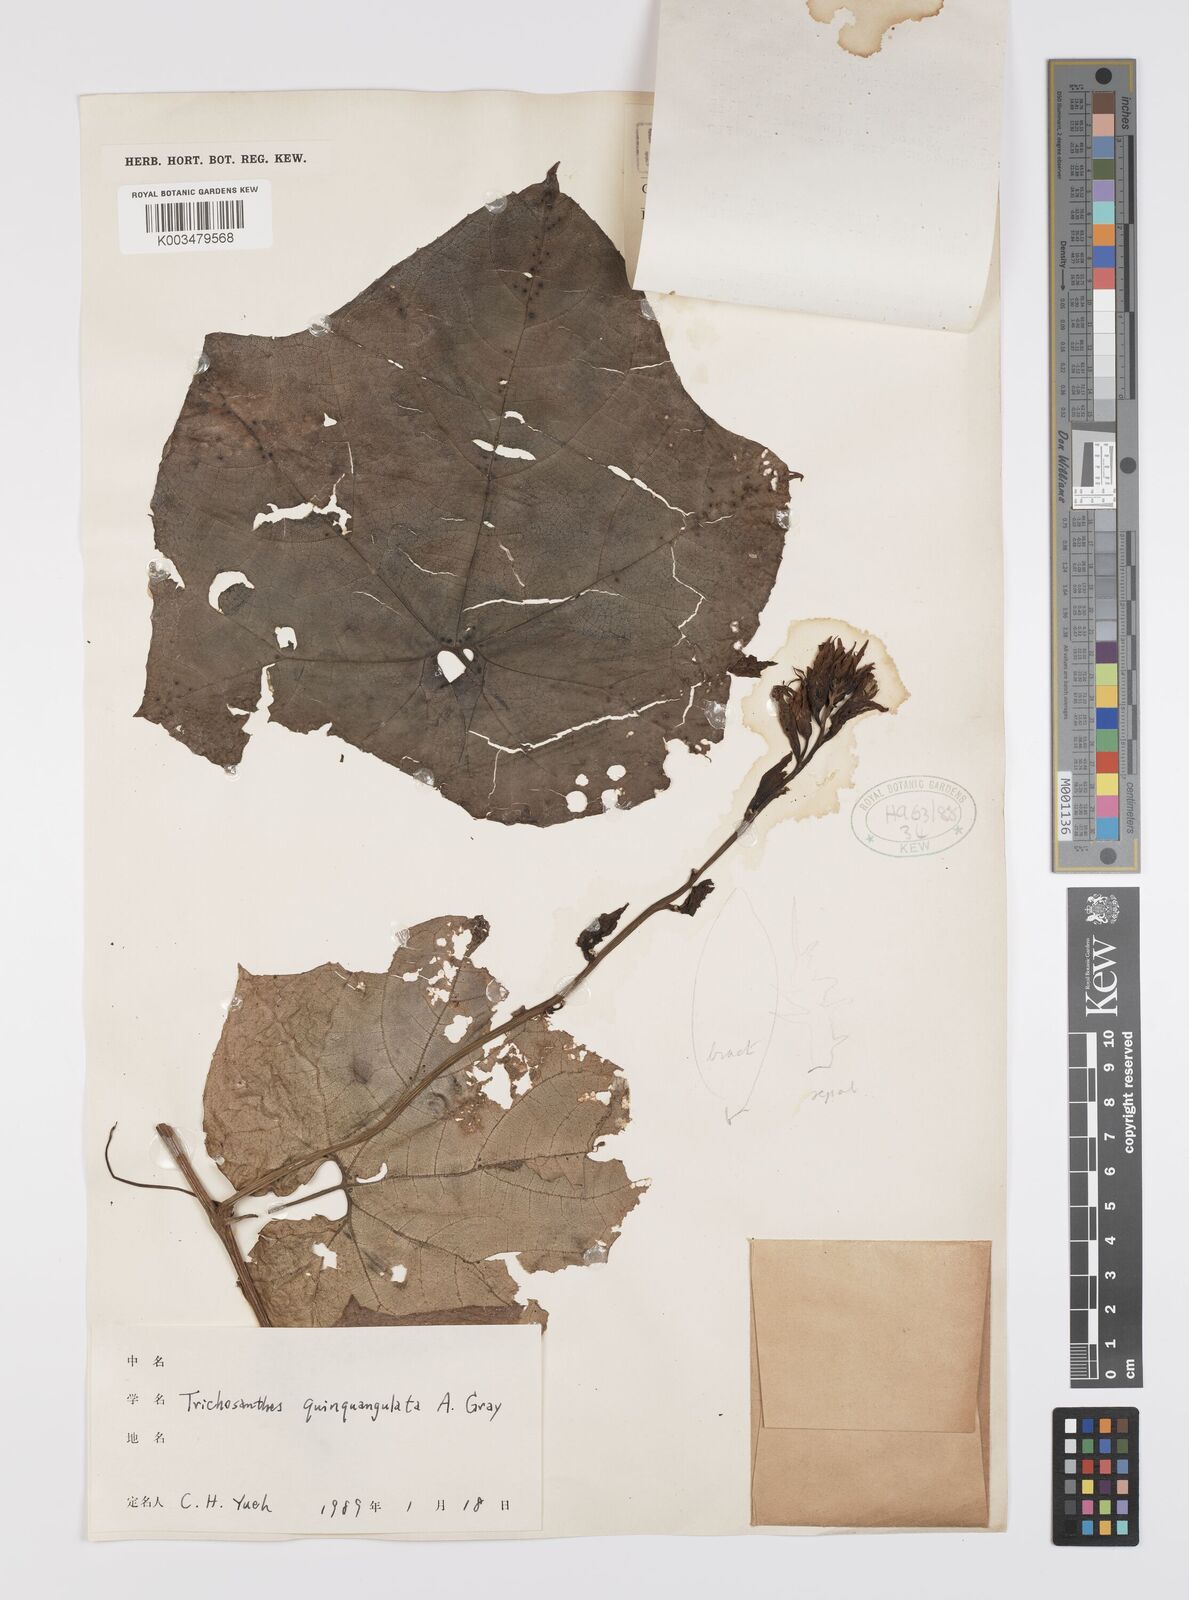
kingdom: Plantae
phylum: Tracheophyta
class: Magnoliopsida
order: Cucurbitales
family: Cucurbitaceae
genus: Trichosanthes
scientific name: Trichosanthes quinquangulata
